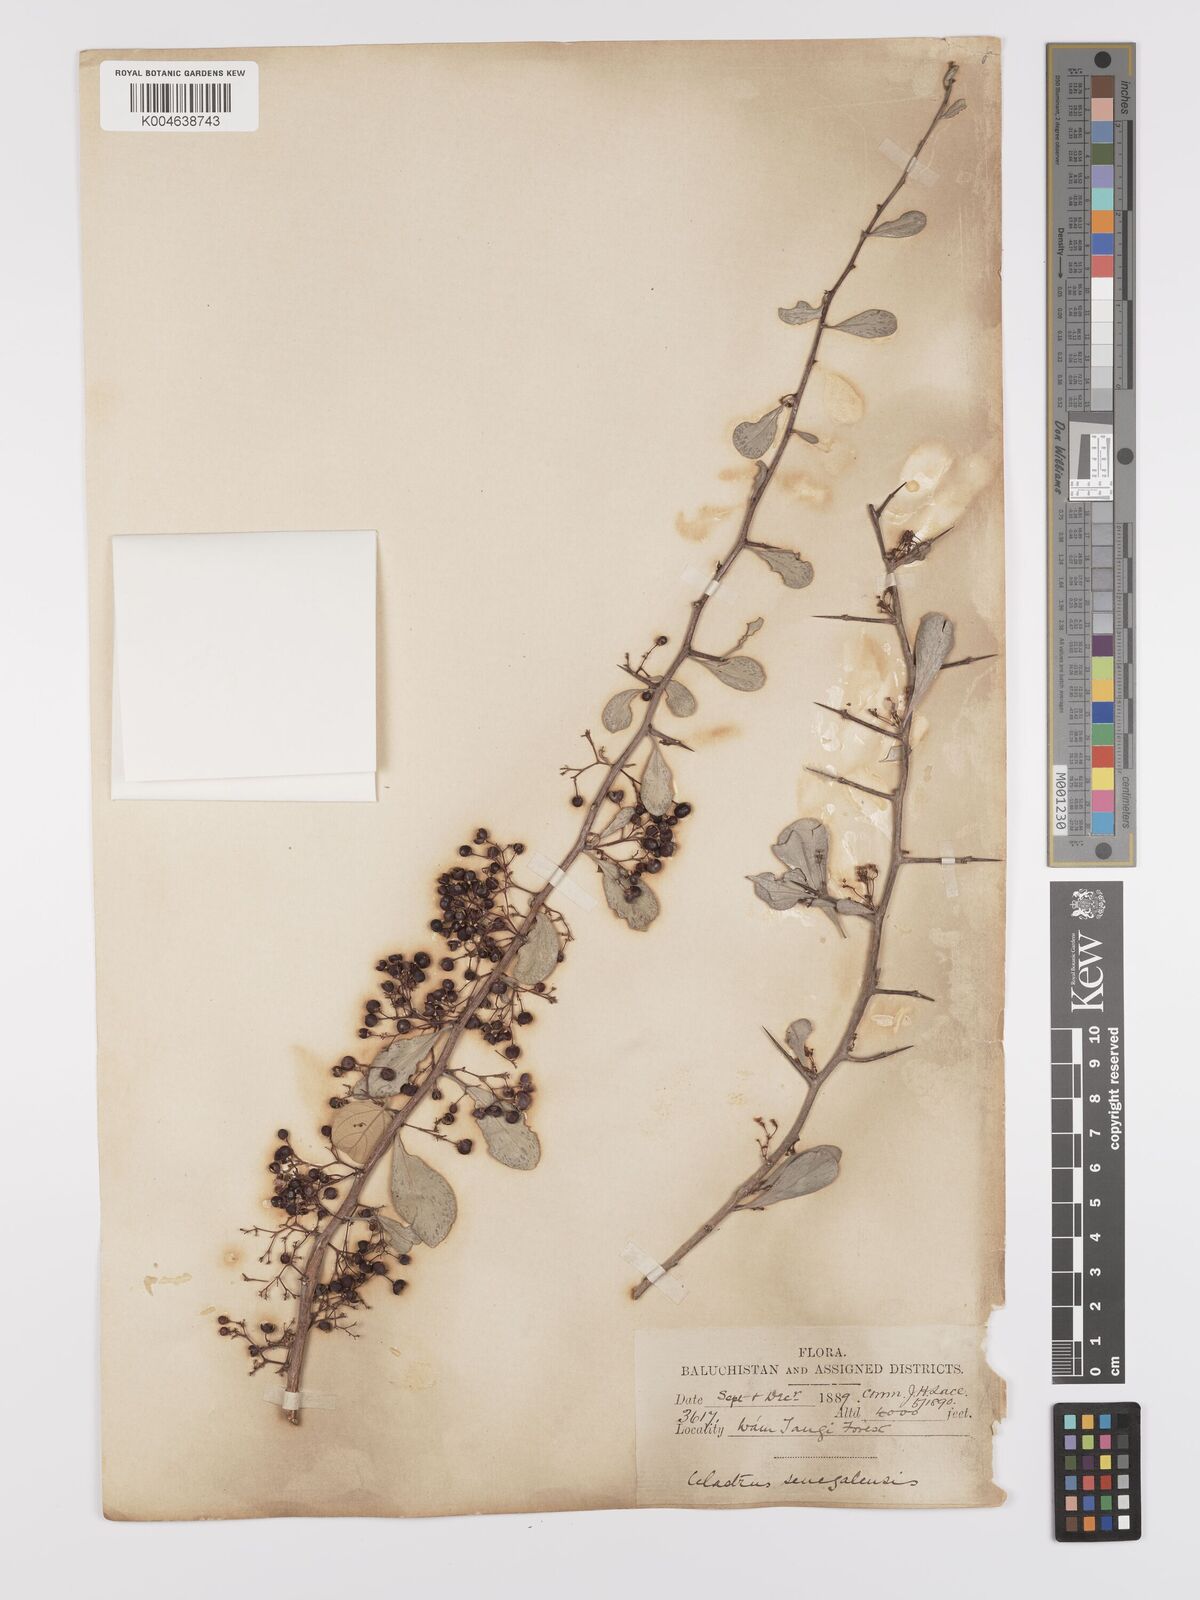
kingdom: Plantae
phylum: Tracheophyta
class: Magnoliopsida
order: Celastrales
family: Celastraceae
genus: Gymnosporia
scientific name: Gymnosporia senegalensis
